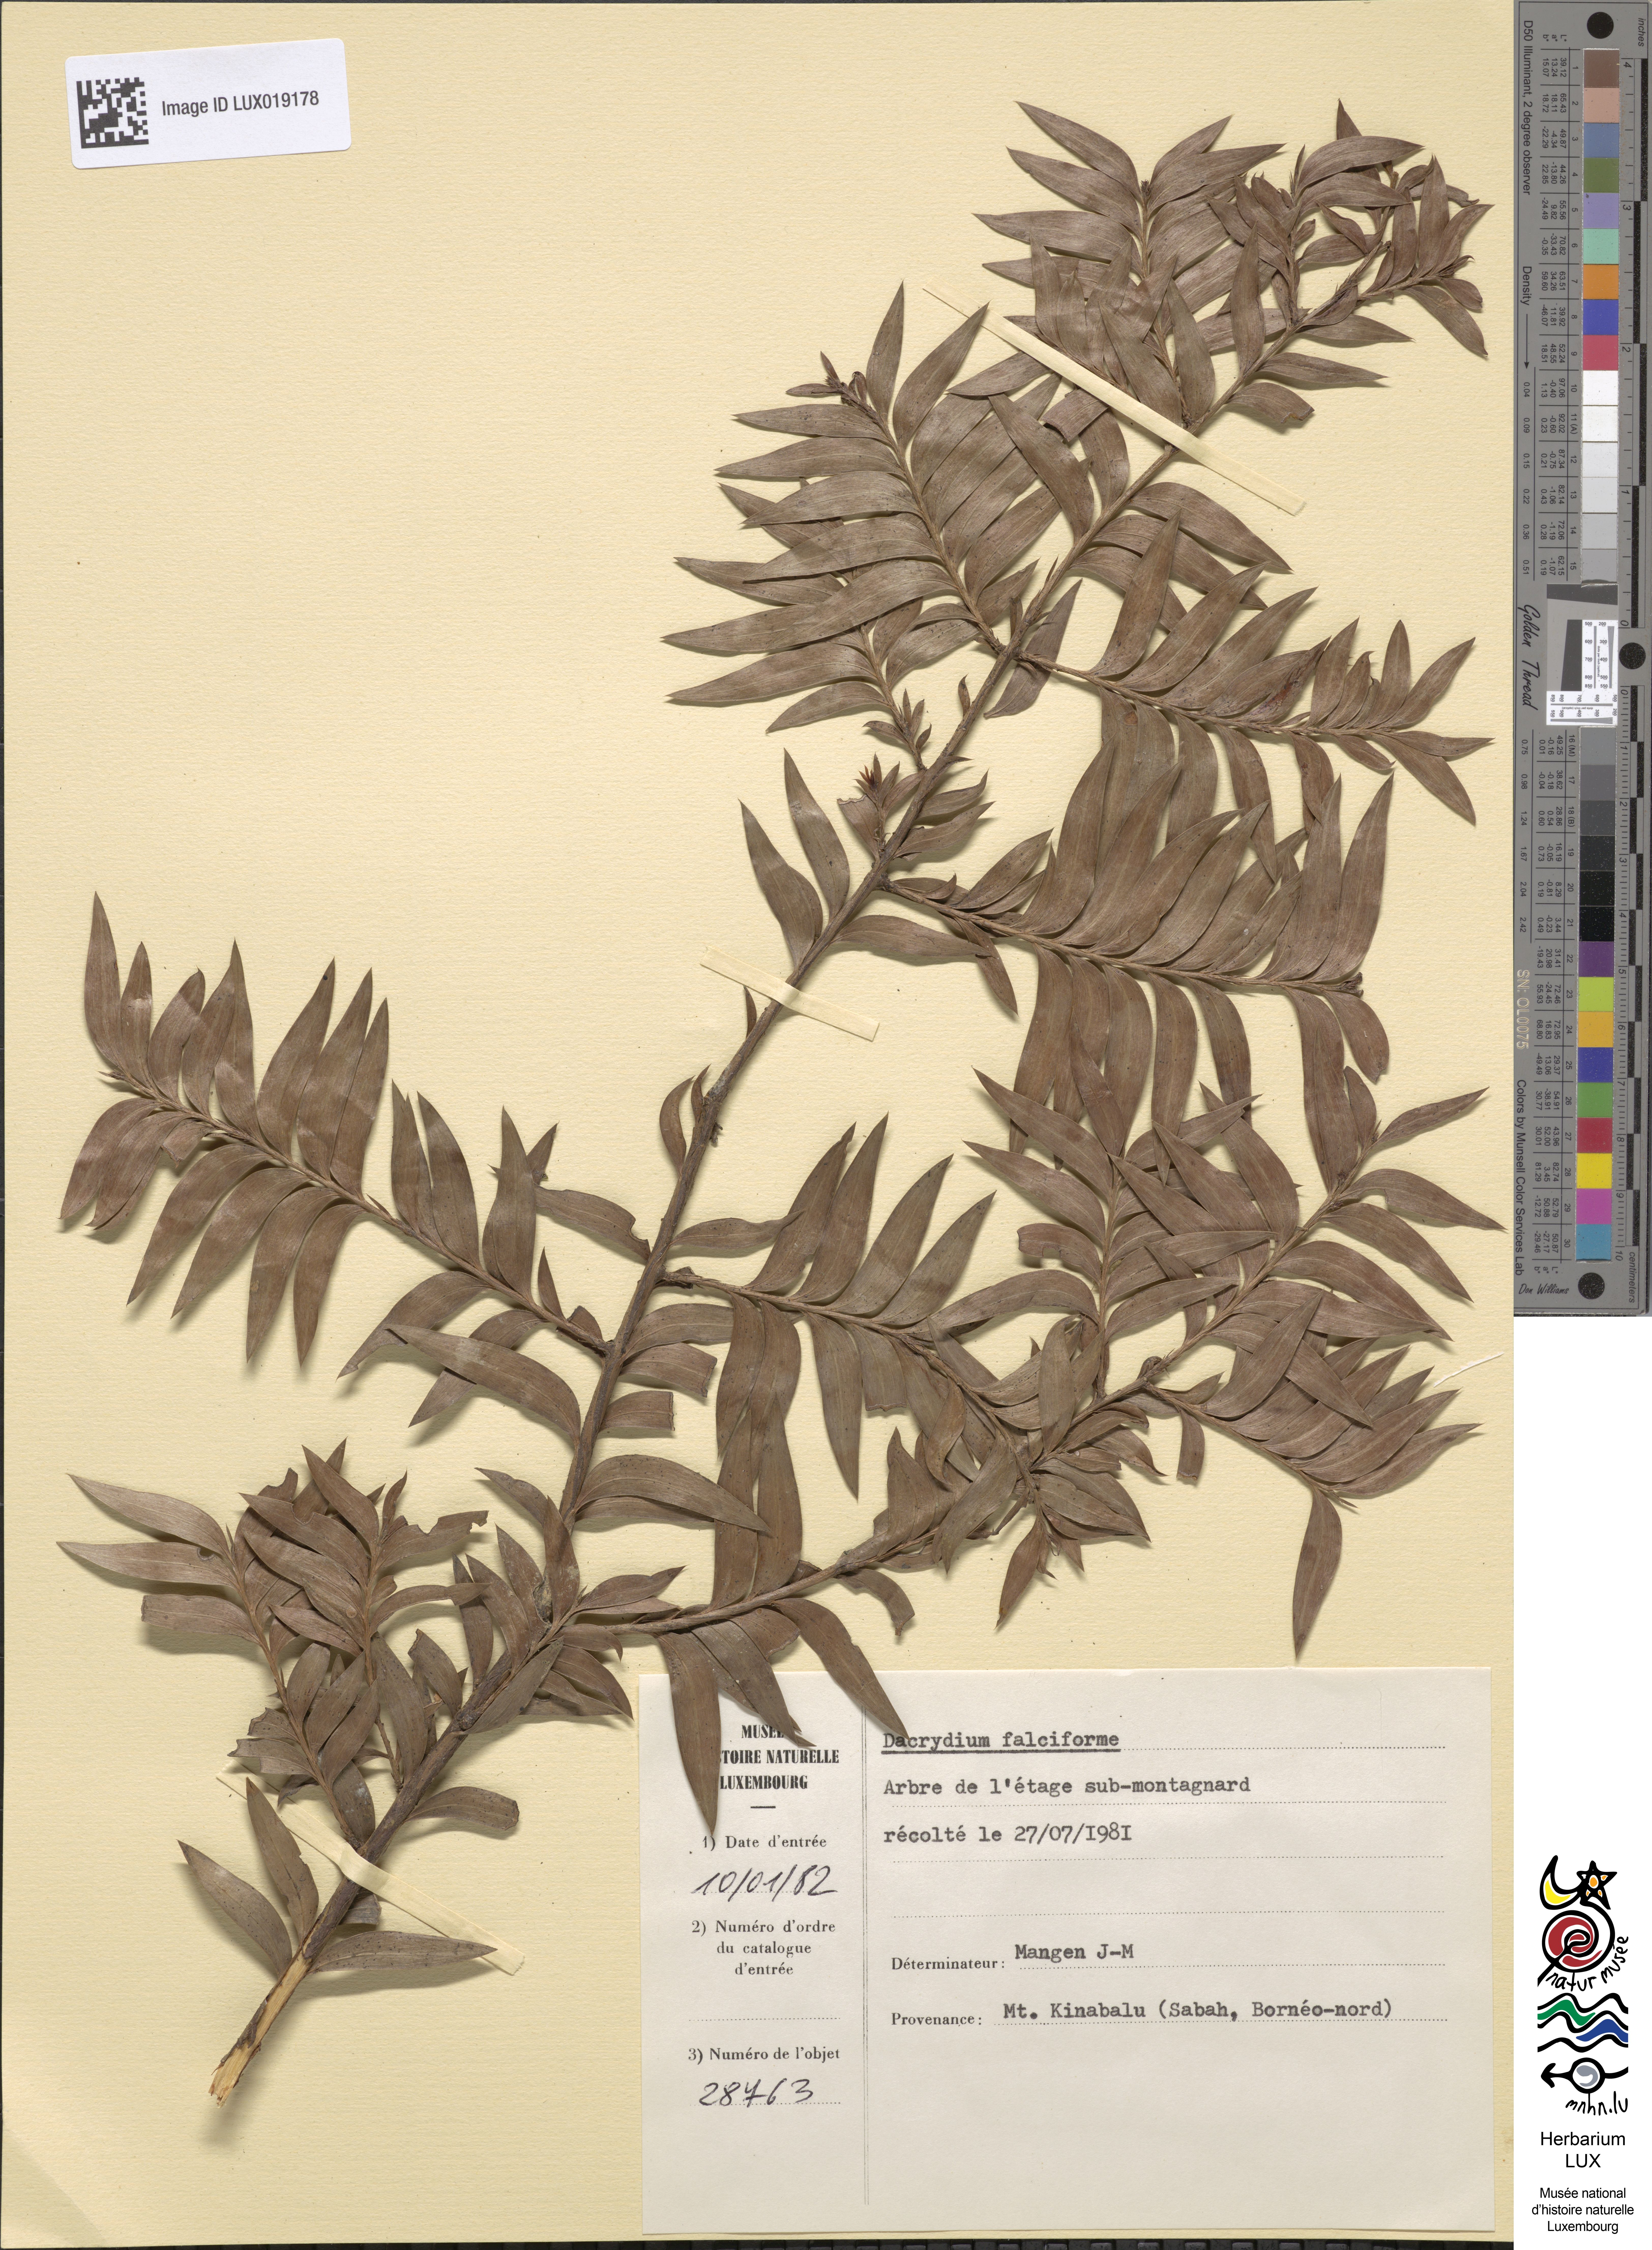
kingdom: Plantae
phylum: Tracheophyta
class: Pinopsida
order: Pinales
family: Podocarpaceae
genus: Falcatifolium
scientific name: Falcatifolium falciforme
